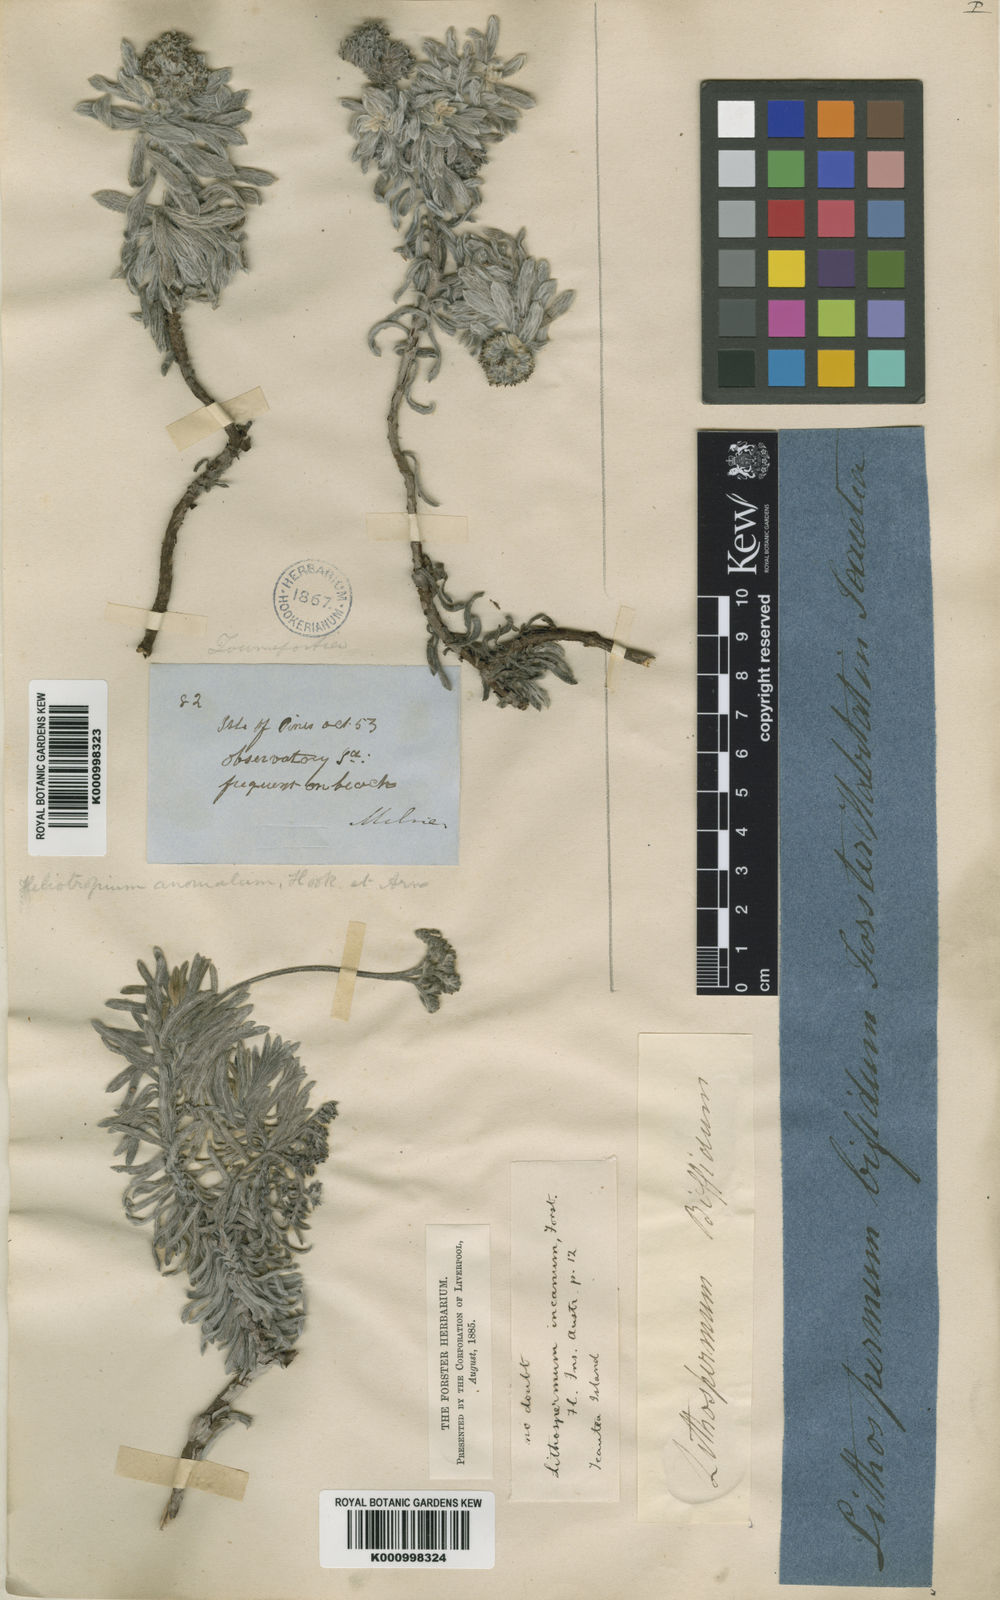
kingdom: Plantae
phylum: Tracheophyta
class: Magnoliopsida
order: Boraginales
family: Heliotropiaceae
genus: Heliotropium
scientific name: Heliotropium anomalum
